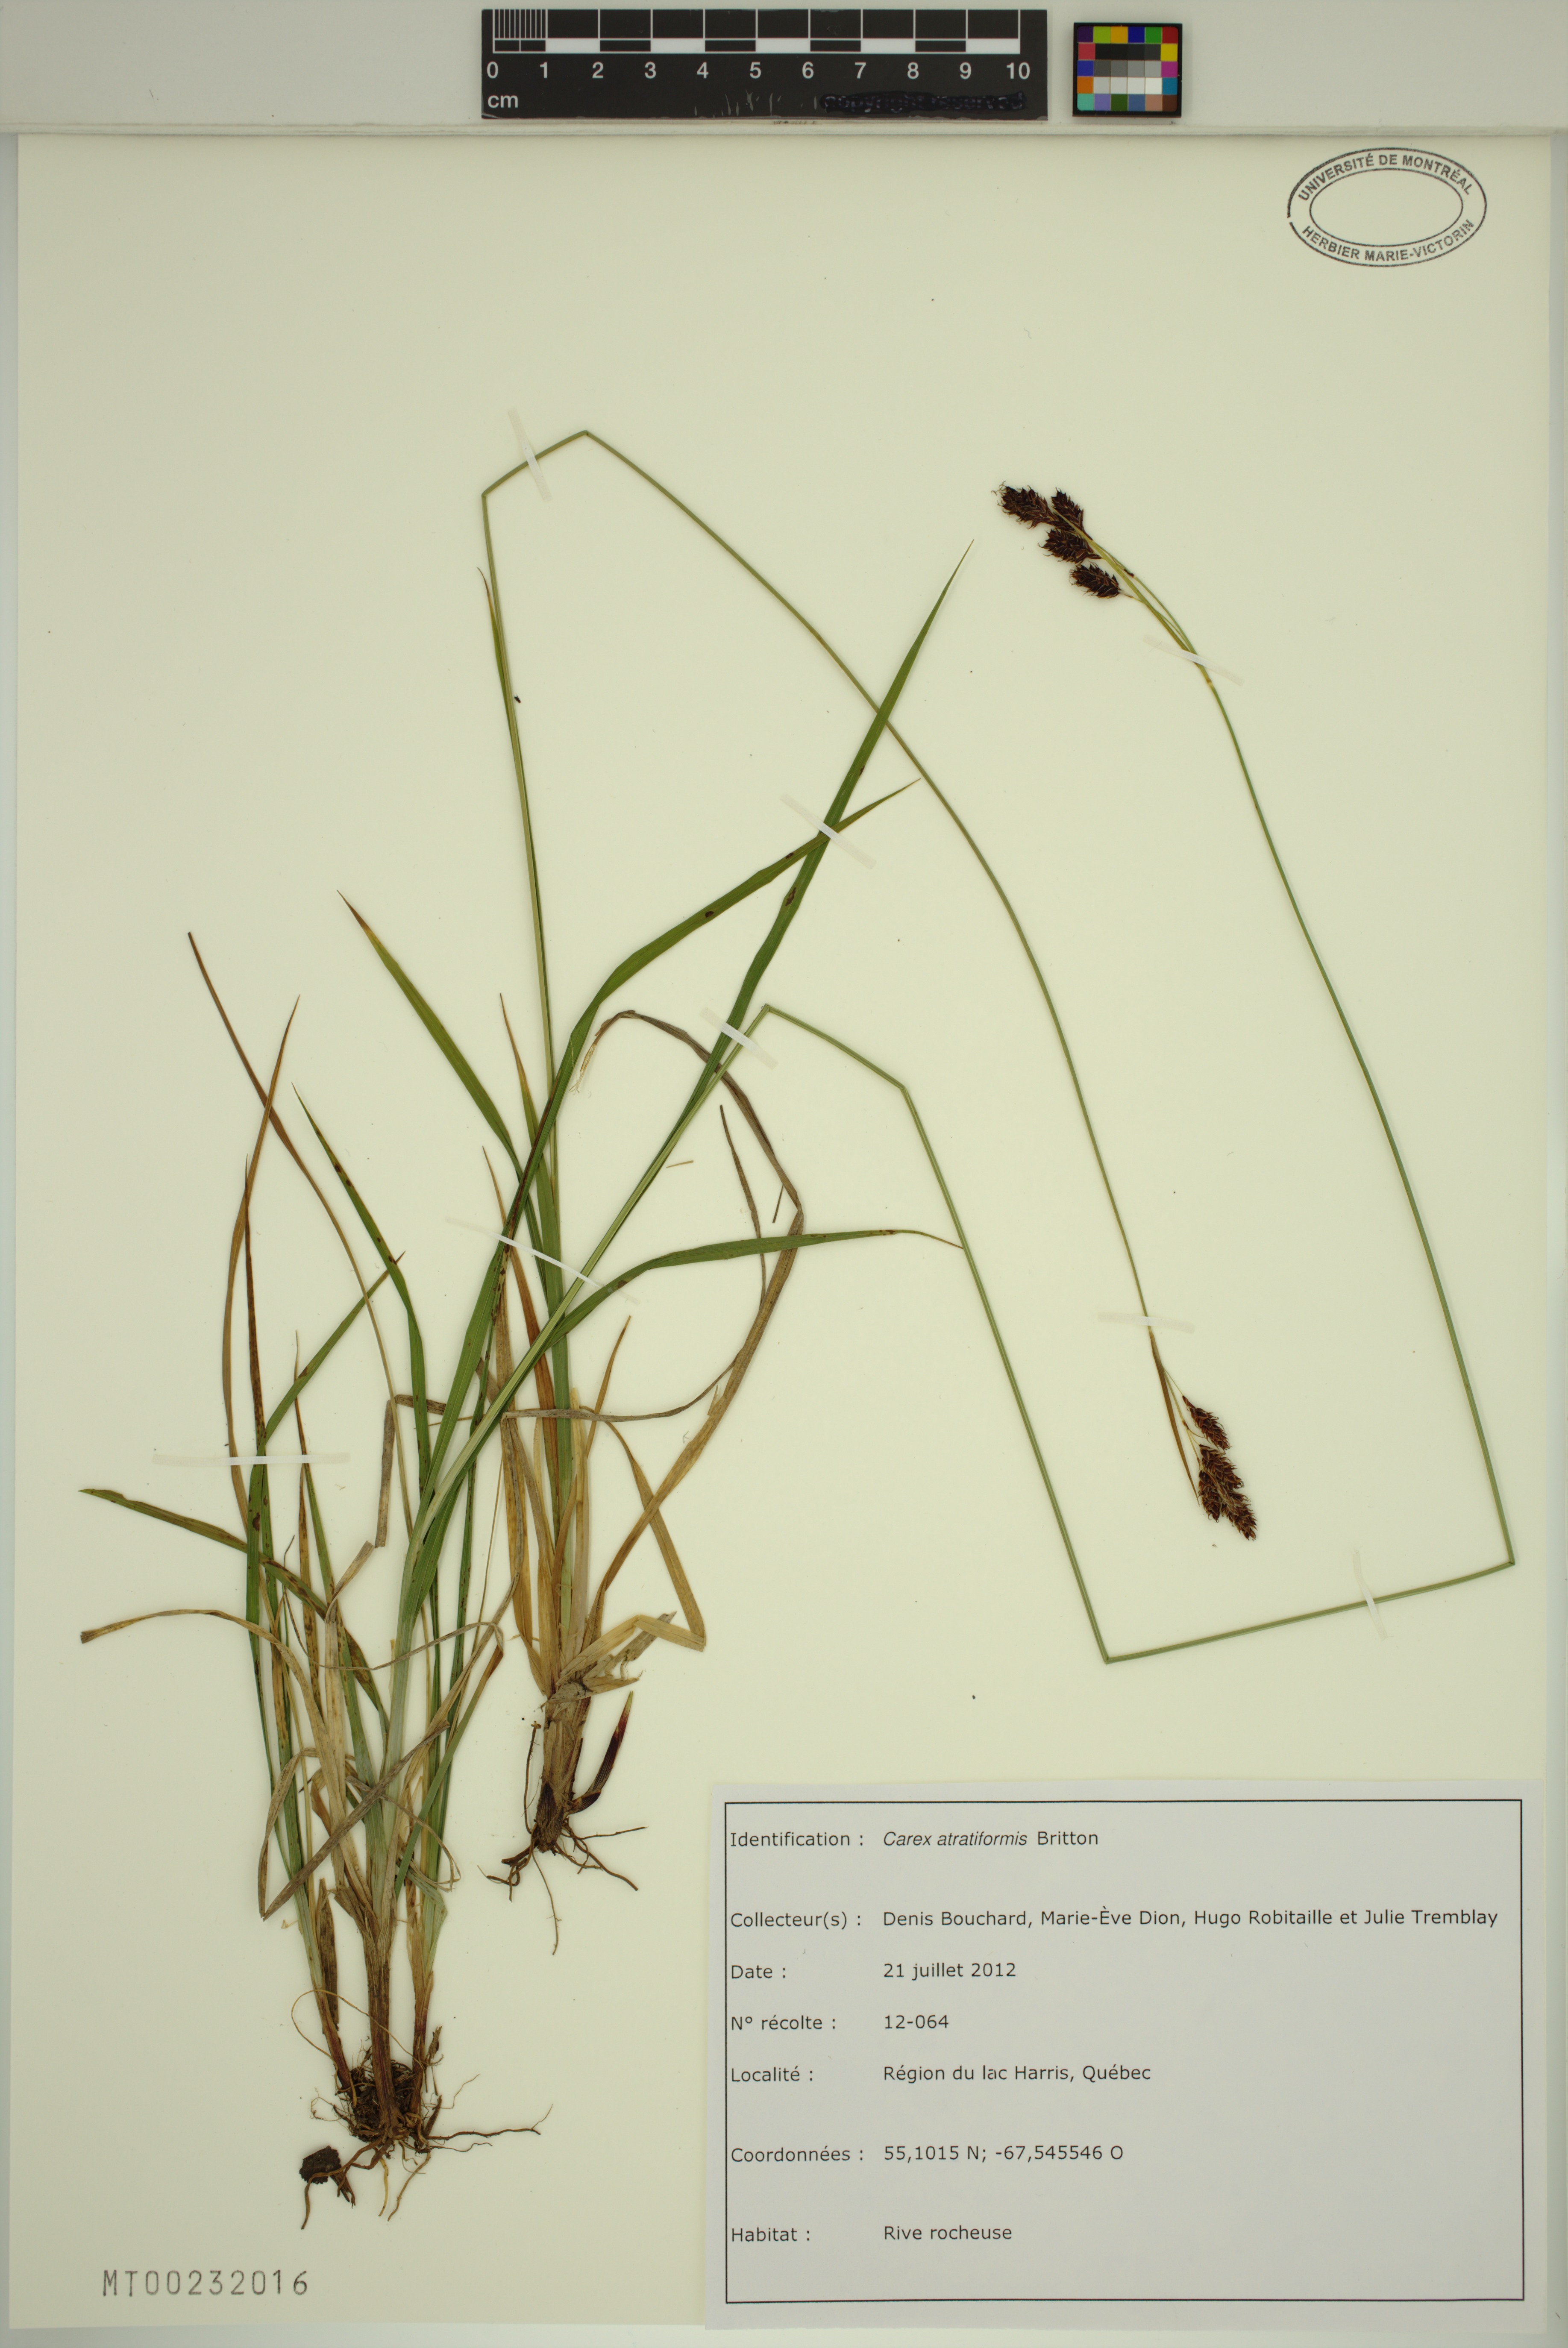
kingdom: Plantae
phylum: Tracheophyta
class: Liliopsida
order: Poales
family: Cyperaceae
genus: Carex
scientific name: Carex atratiformis
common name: Black sedge
